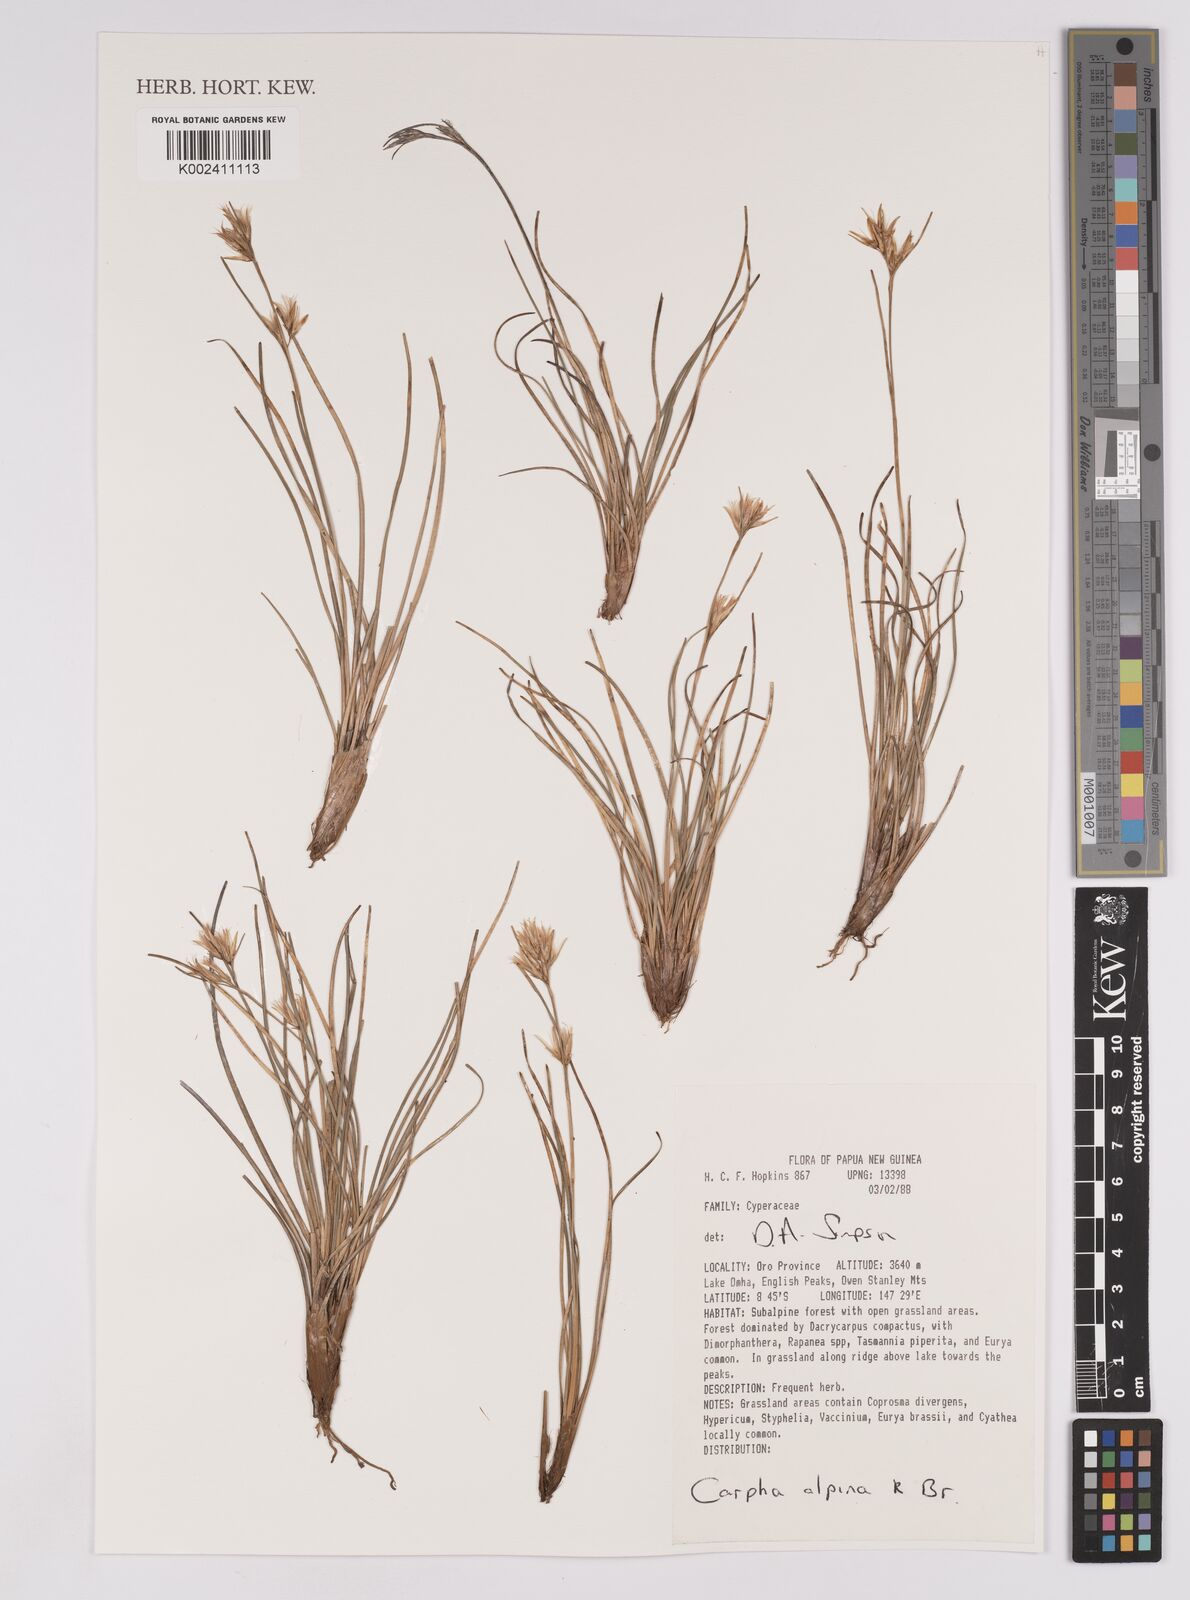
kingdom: Plantae
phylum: Tracheophyta
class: Liliopsida
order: Poales
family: Cyperaceae
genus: Carpha
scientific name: Carpha alpina
